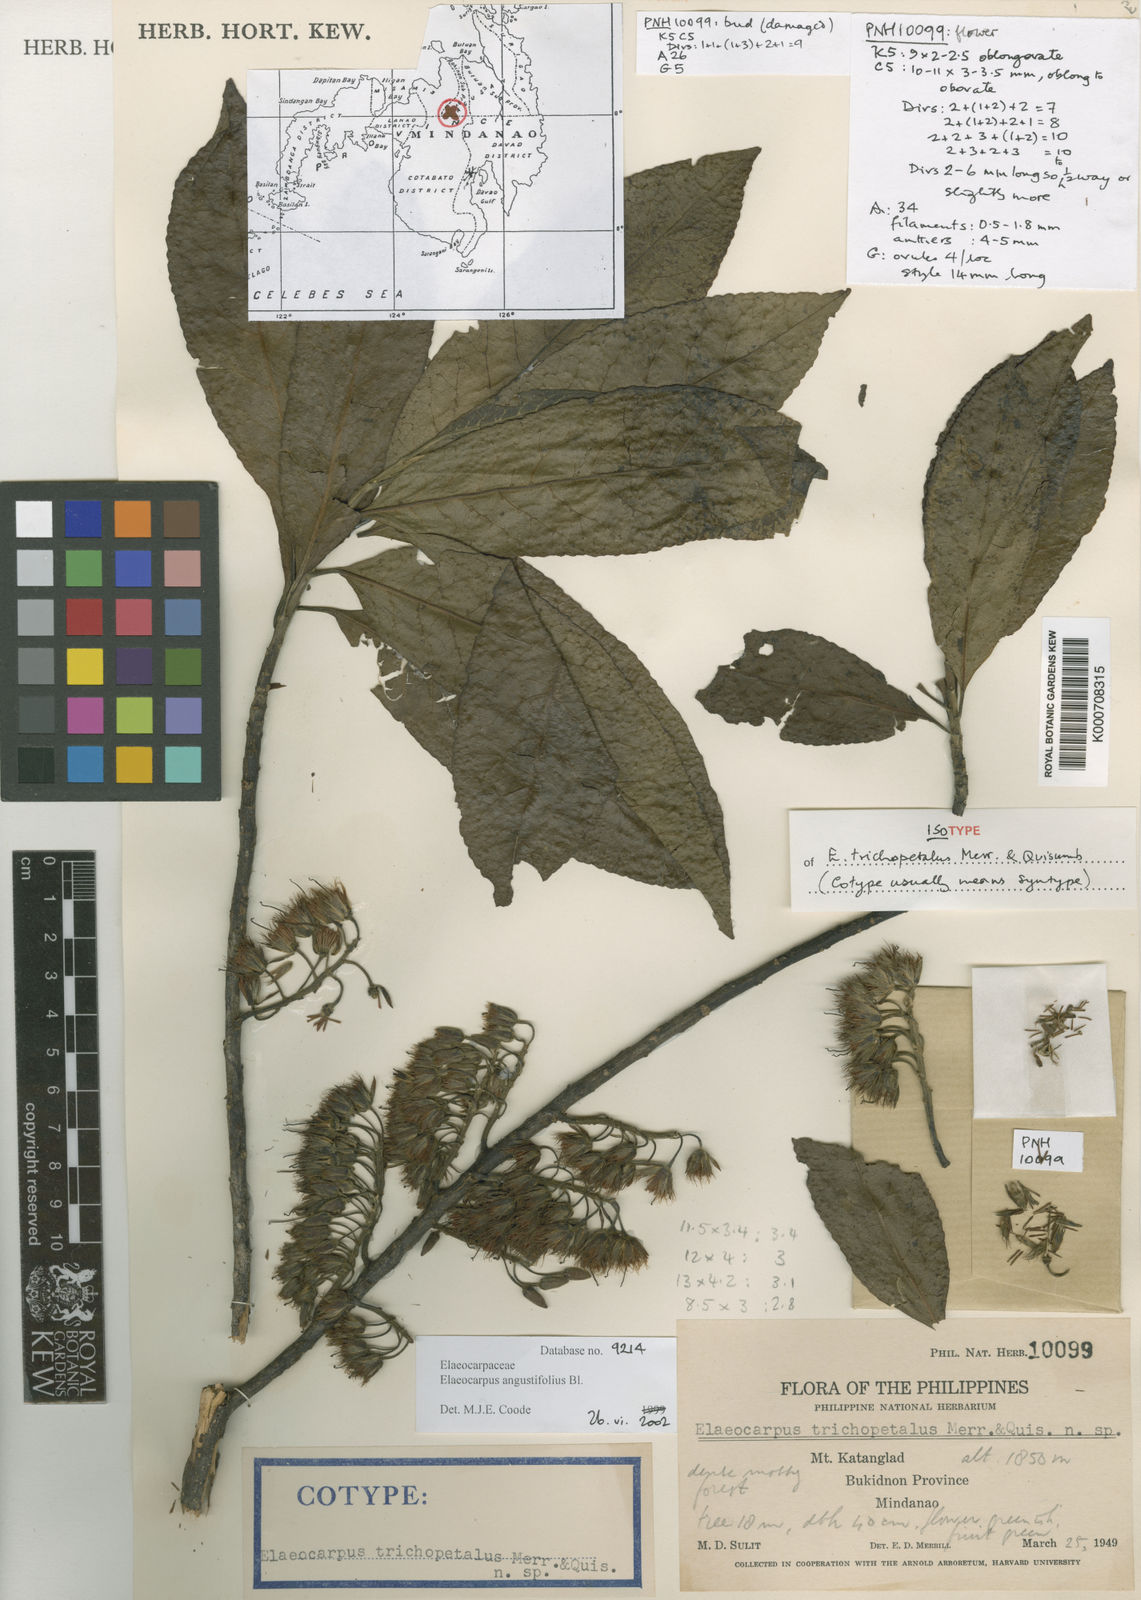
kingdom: Plantae
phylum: Tracheophyta
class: Magnoliopsida
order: Oxalidales
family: Elaeocarpaceae
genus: Elaeocarpus
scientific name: Elaeocarpus angustifolius
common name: Blue marble tree
